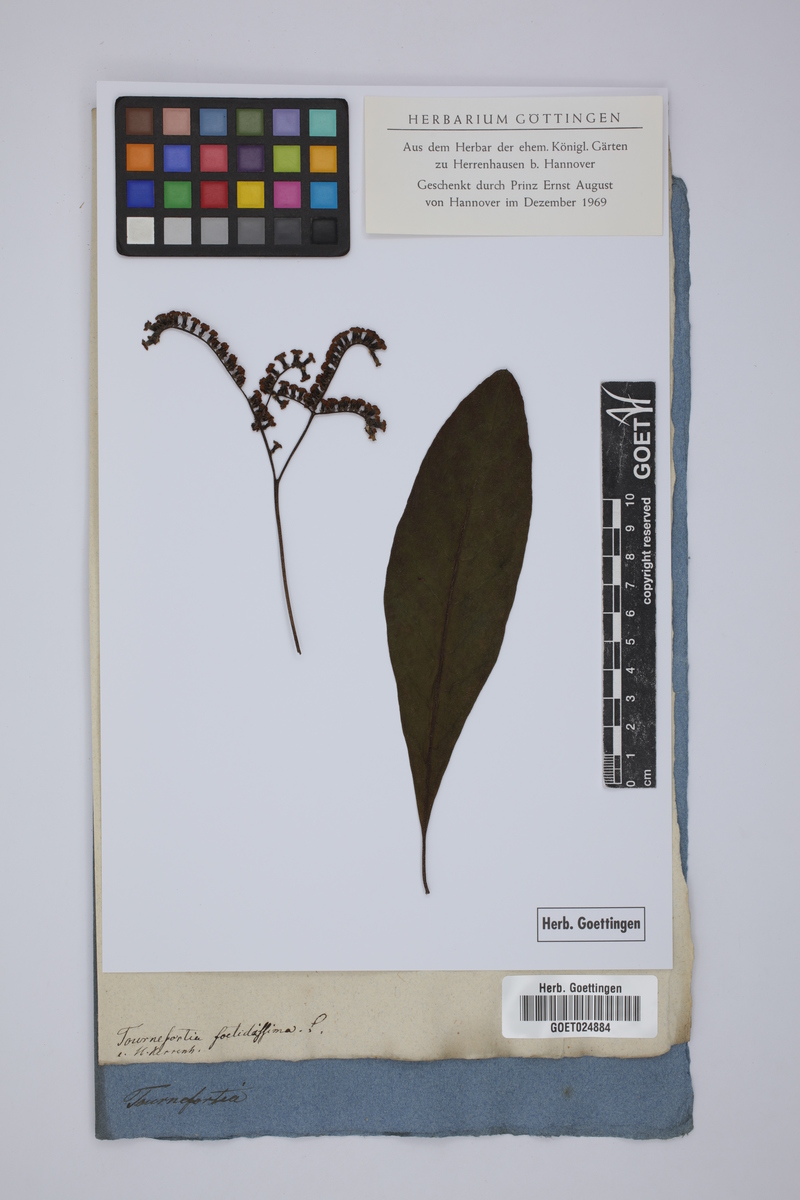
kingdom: Plantae
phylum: Tracheophyta
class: Magnoliopsida
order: Boraginales
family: Heliotropiaceae
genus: Heliotropium
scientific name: Heliotropium foetidissimum
